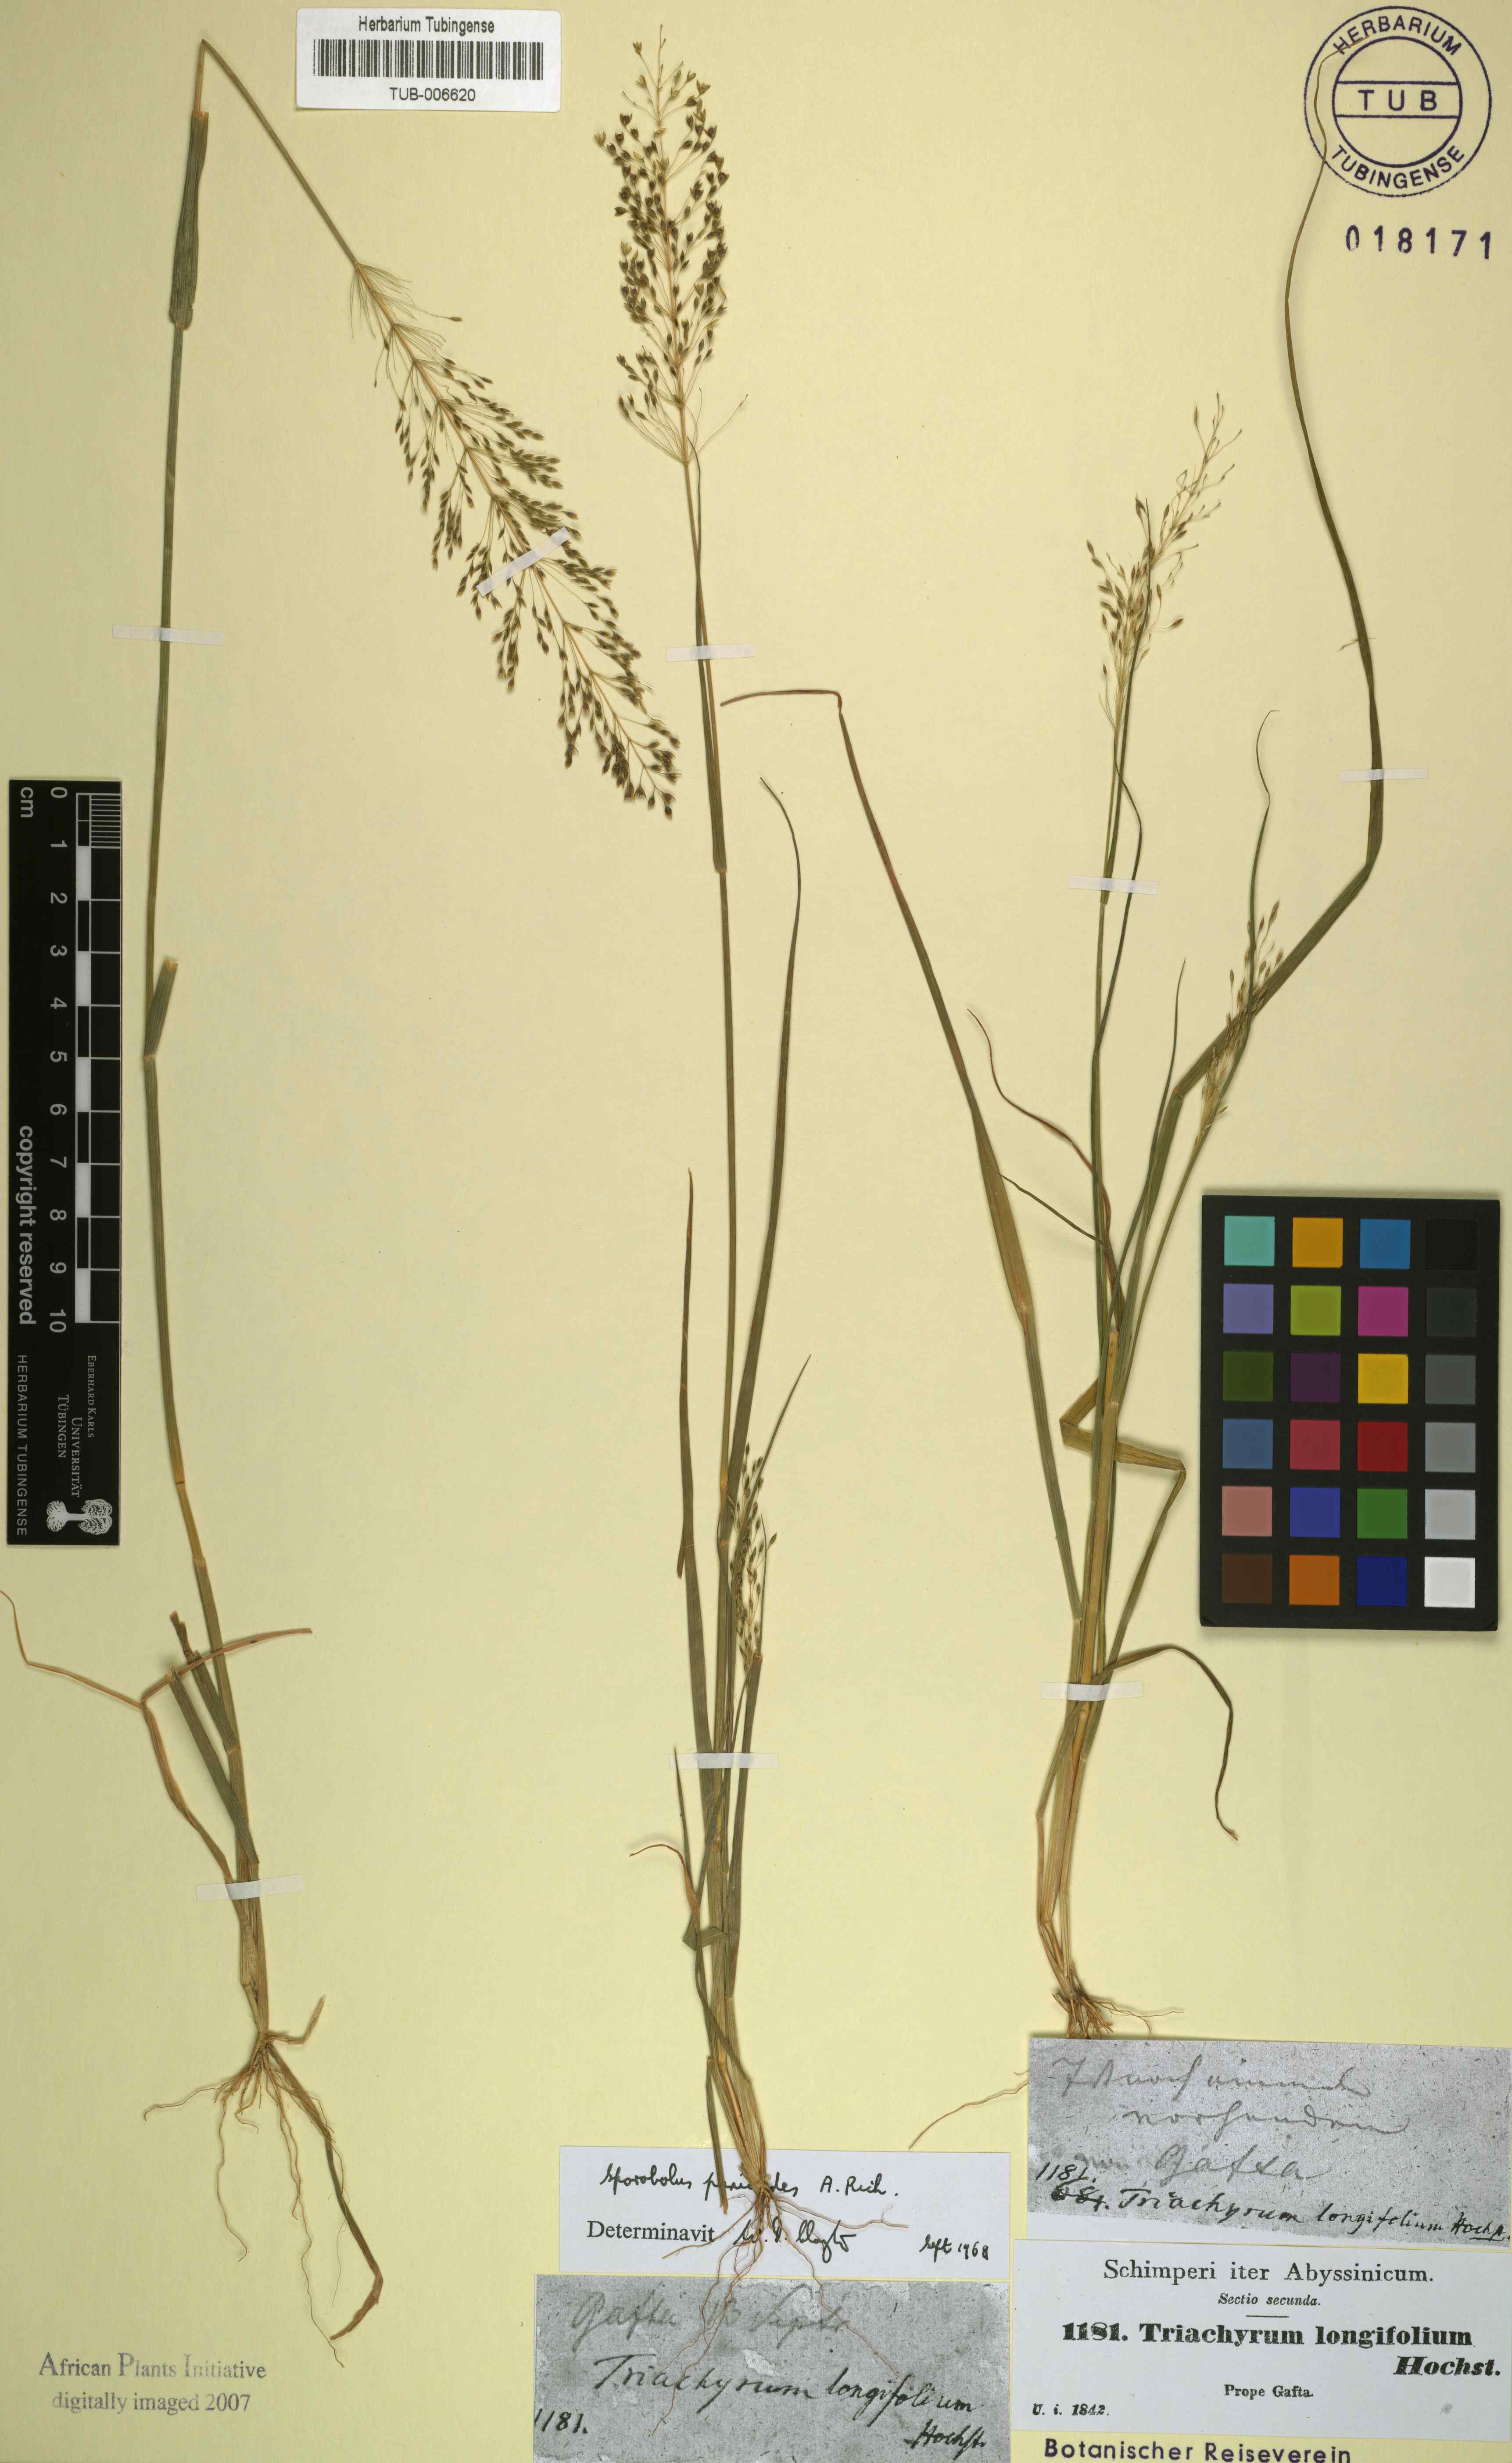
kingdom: Plantae
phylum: Tracheophyta
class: Liliopsida
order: Poales
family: Poaceae
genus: Sporobolus
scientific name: Sporobolus panicoides
